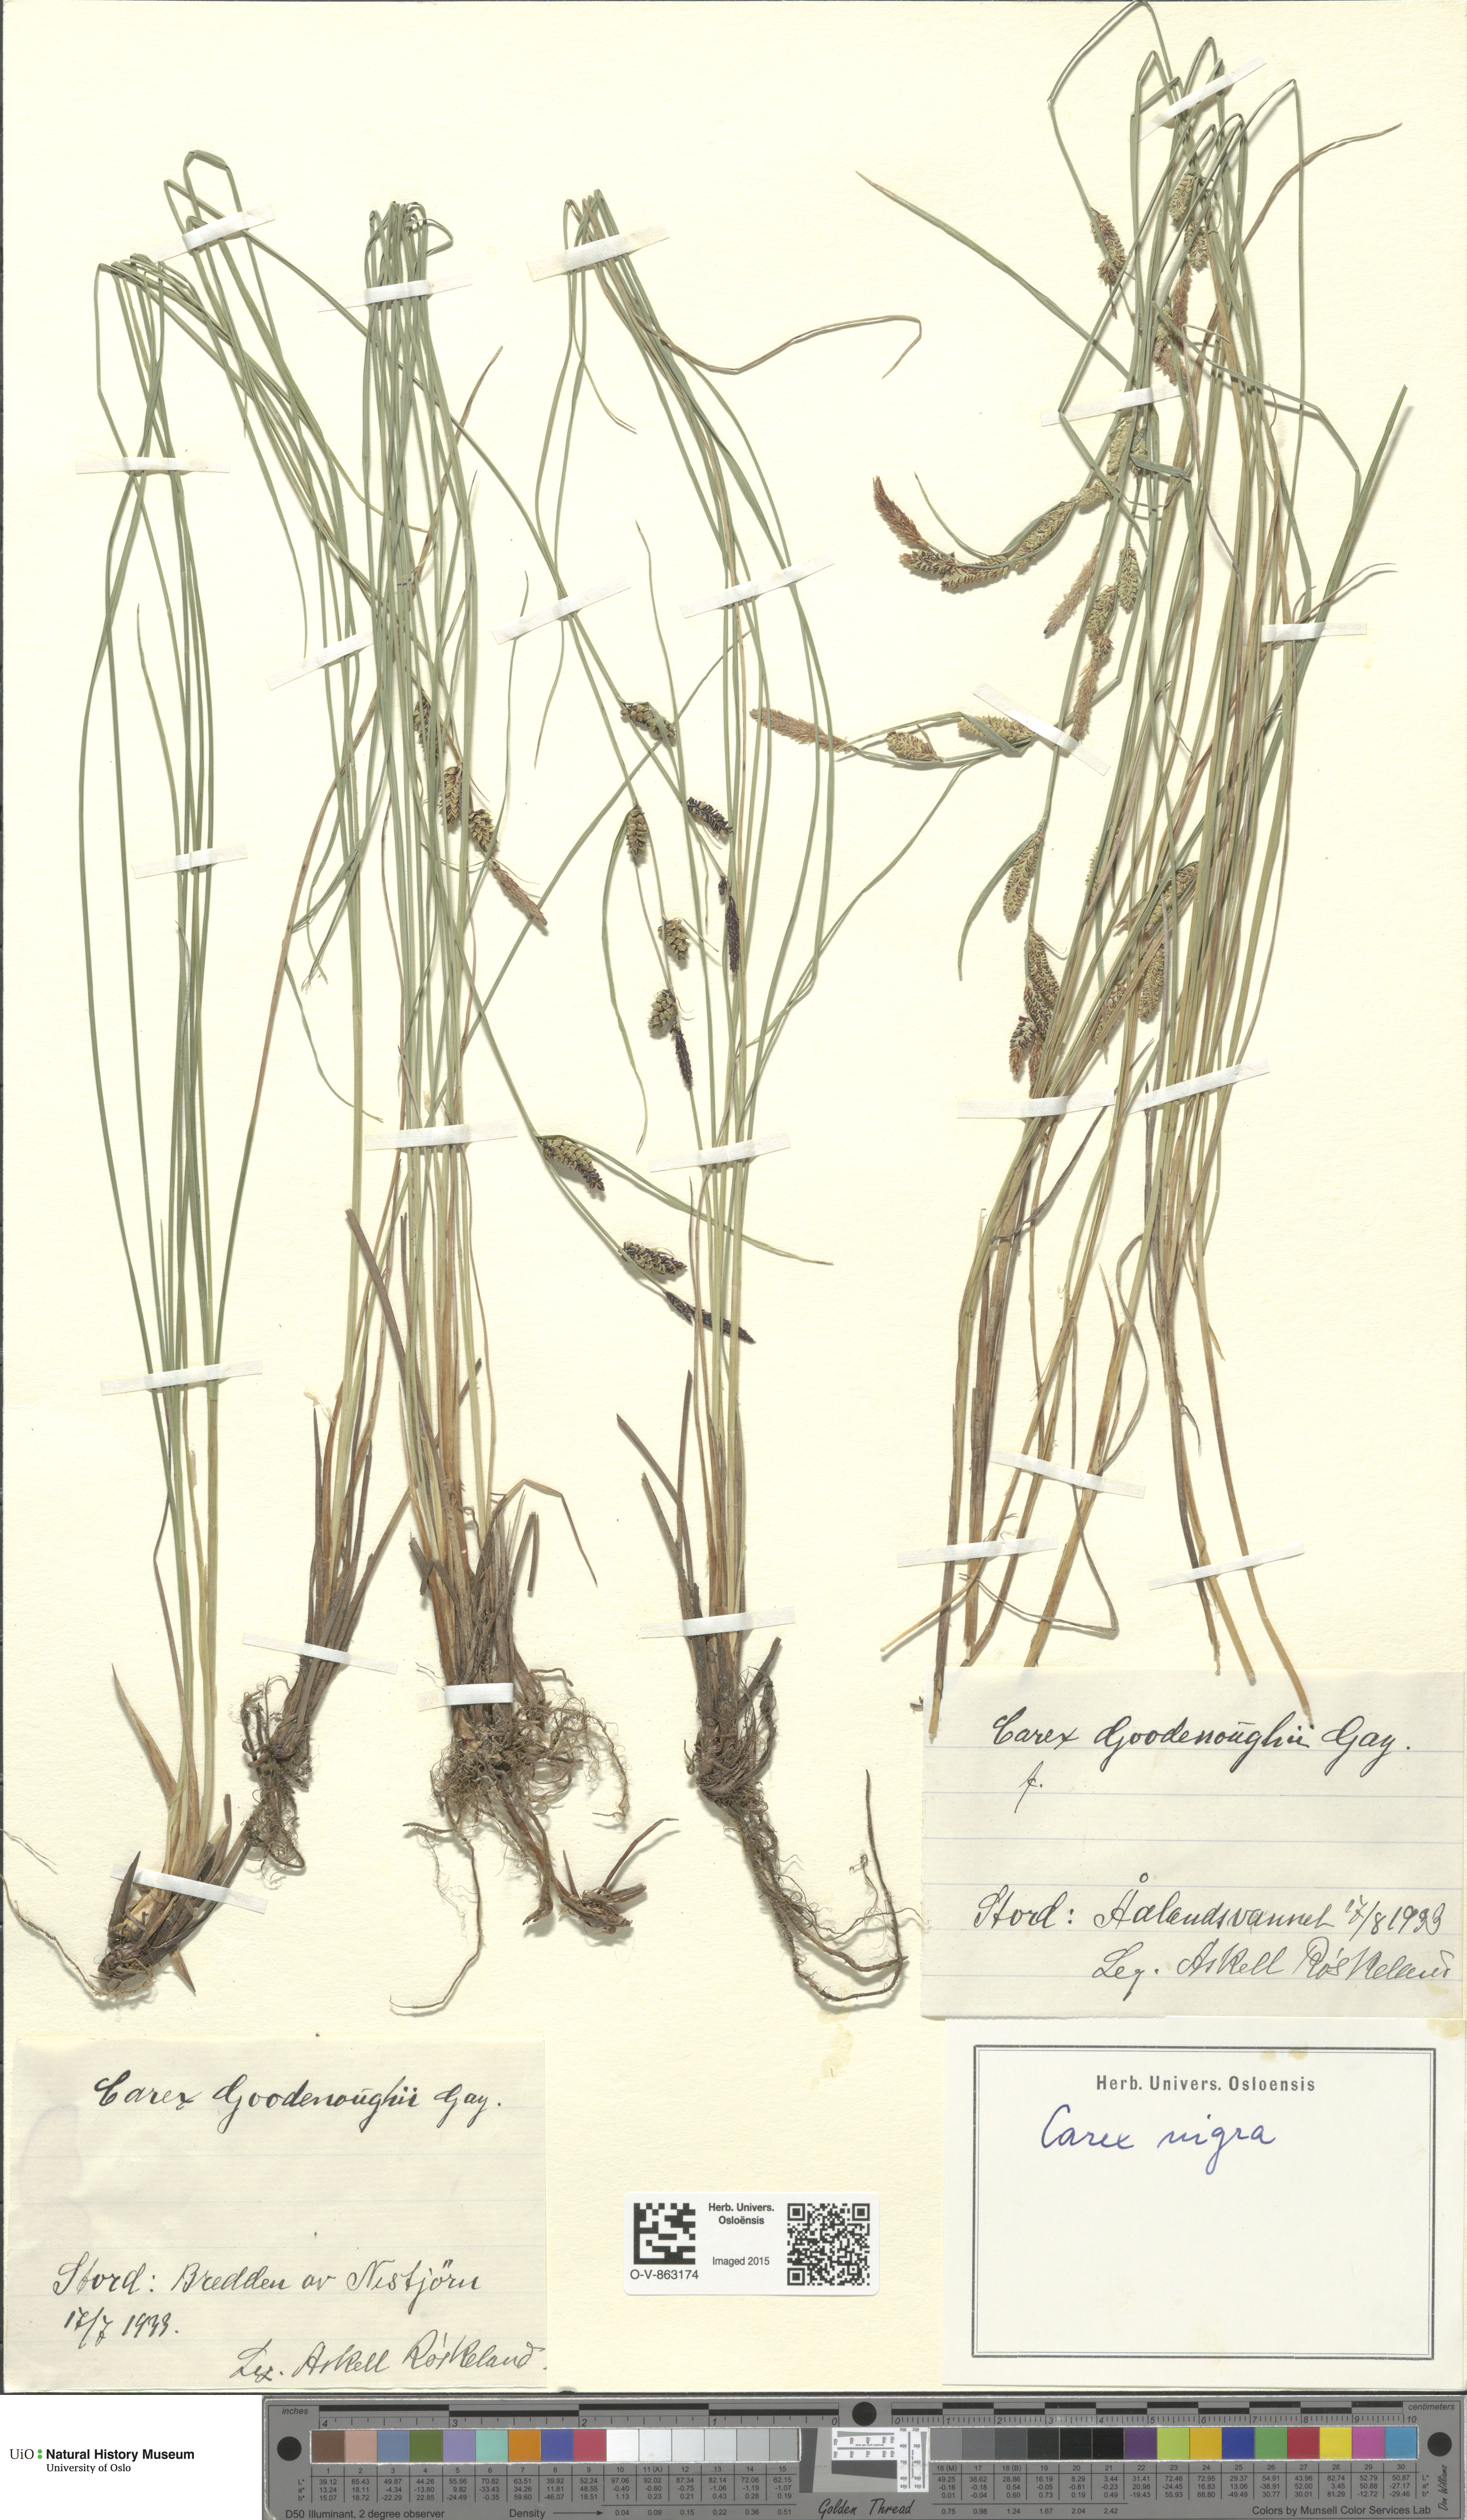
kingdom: Plantae
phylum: Tracheophyta
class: Liliopsida
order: Poales
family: Cyperaceae
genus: Carex
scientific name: Carex nigra
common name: Common sedge
